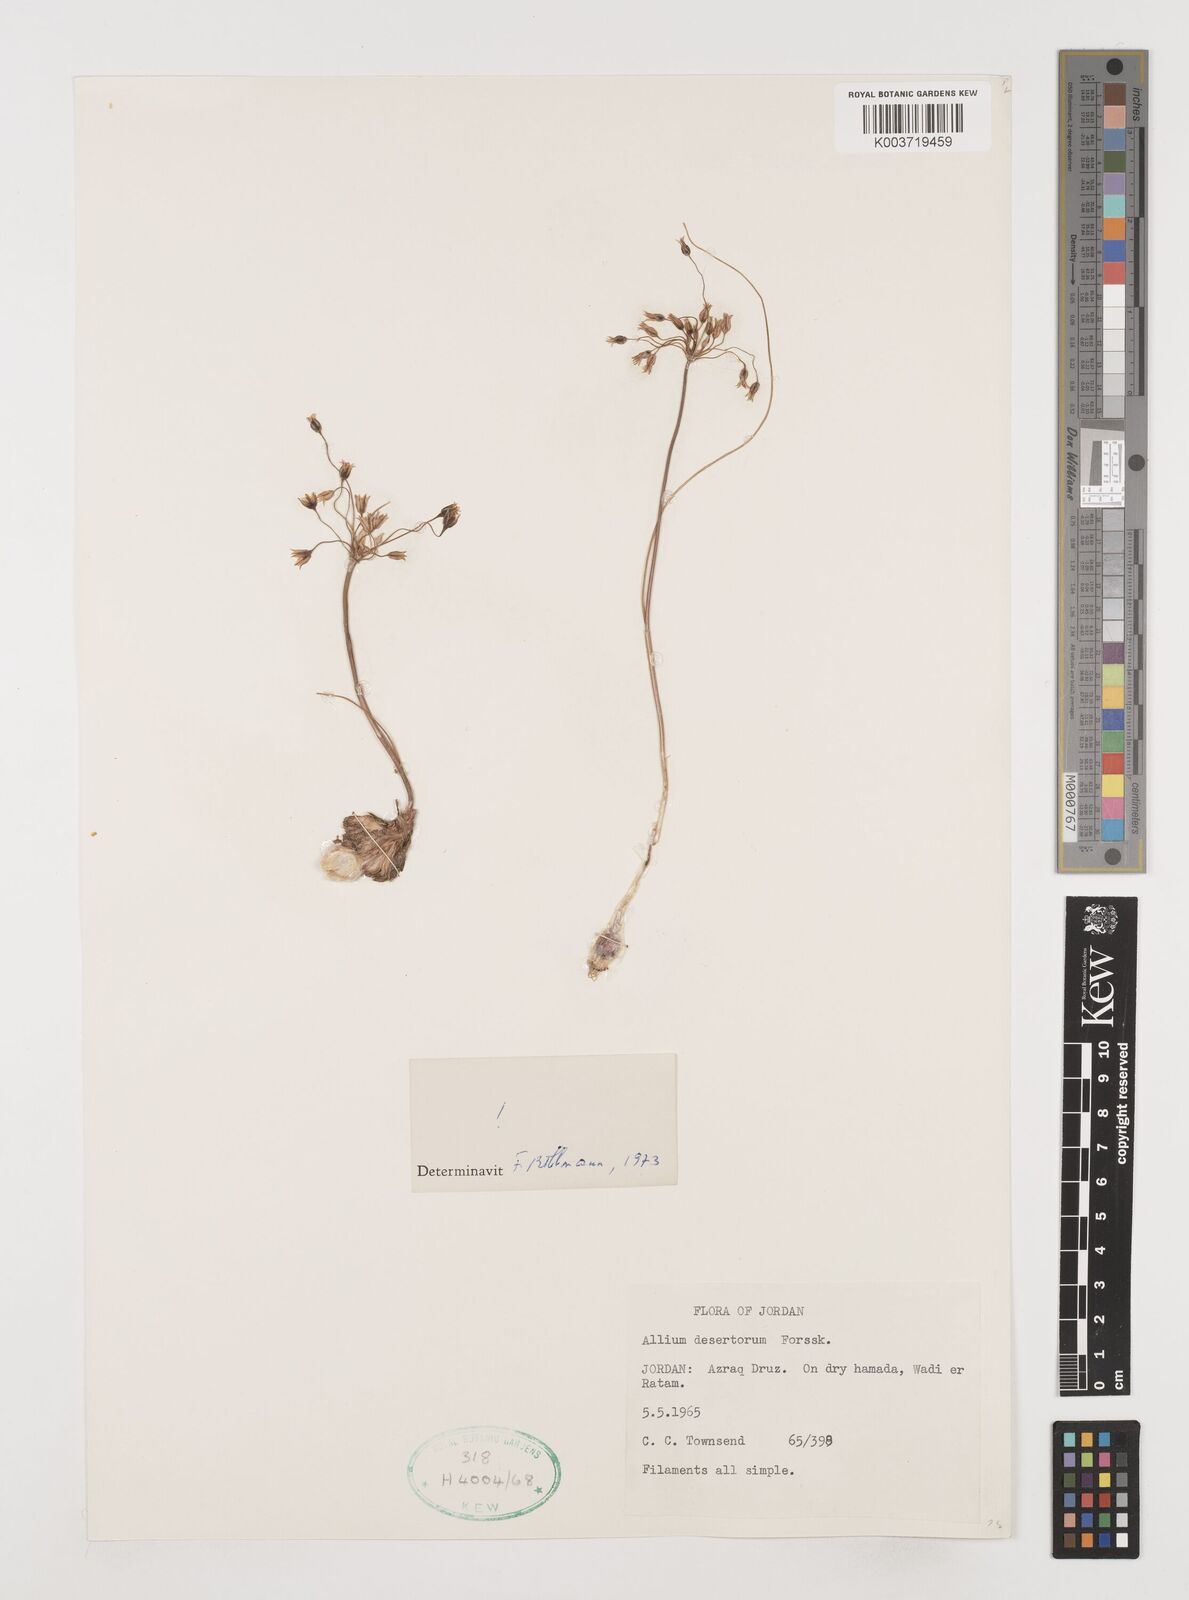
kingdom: Plantae
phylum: Tracheophyta
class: Liliopsida
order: Asparagales
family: Amaryllidaceae
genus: Allium
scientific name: Allium desertorum
